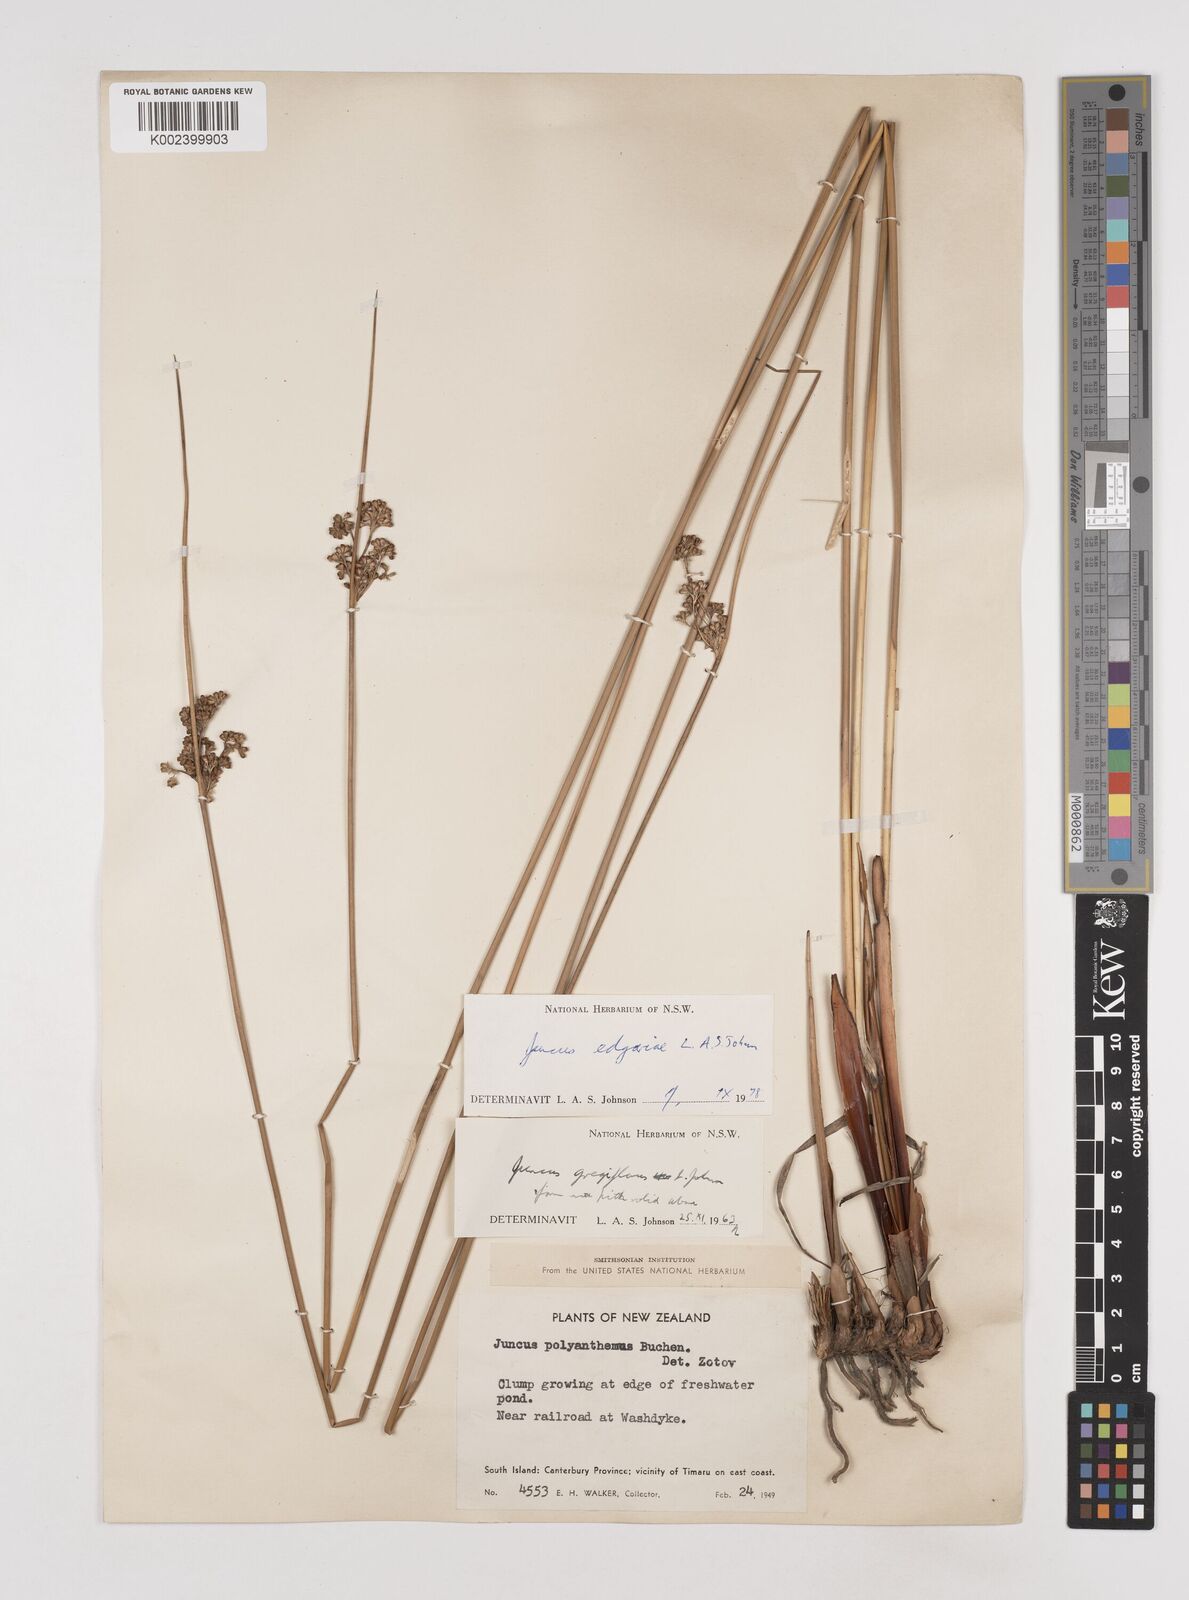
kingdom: Plantae
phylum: Tracheophyta
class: Liliopsida
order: Poales
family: Juncaceae
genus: Juncus
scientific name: Juncus edgariae
